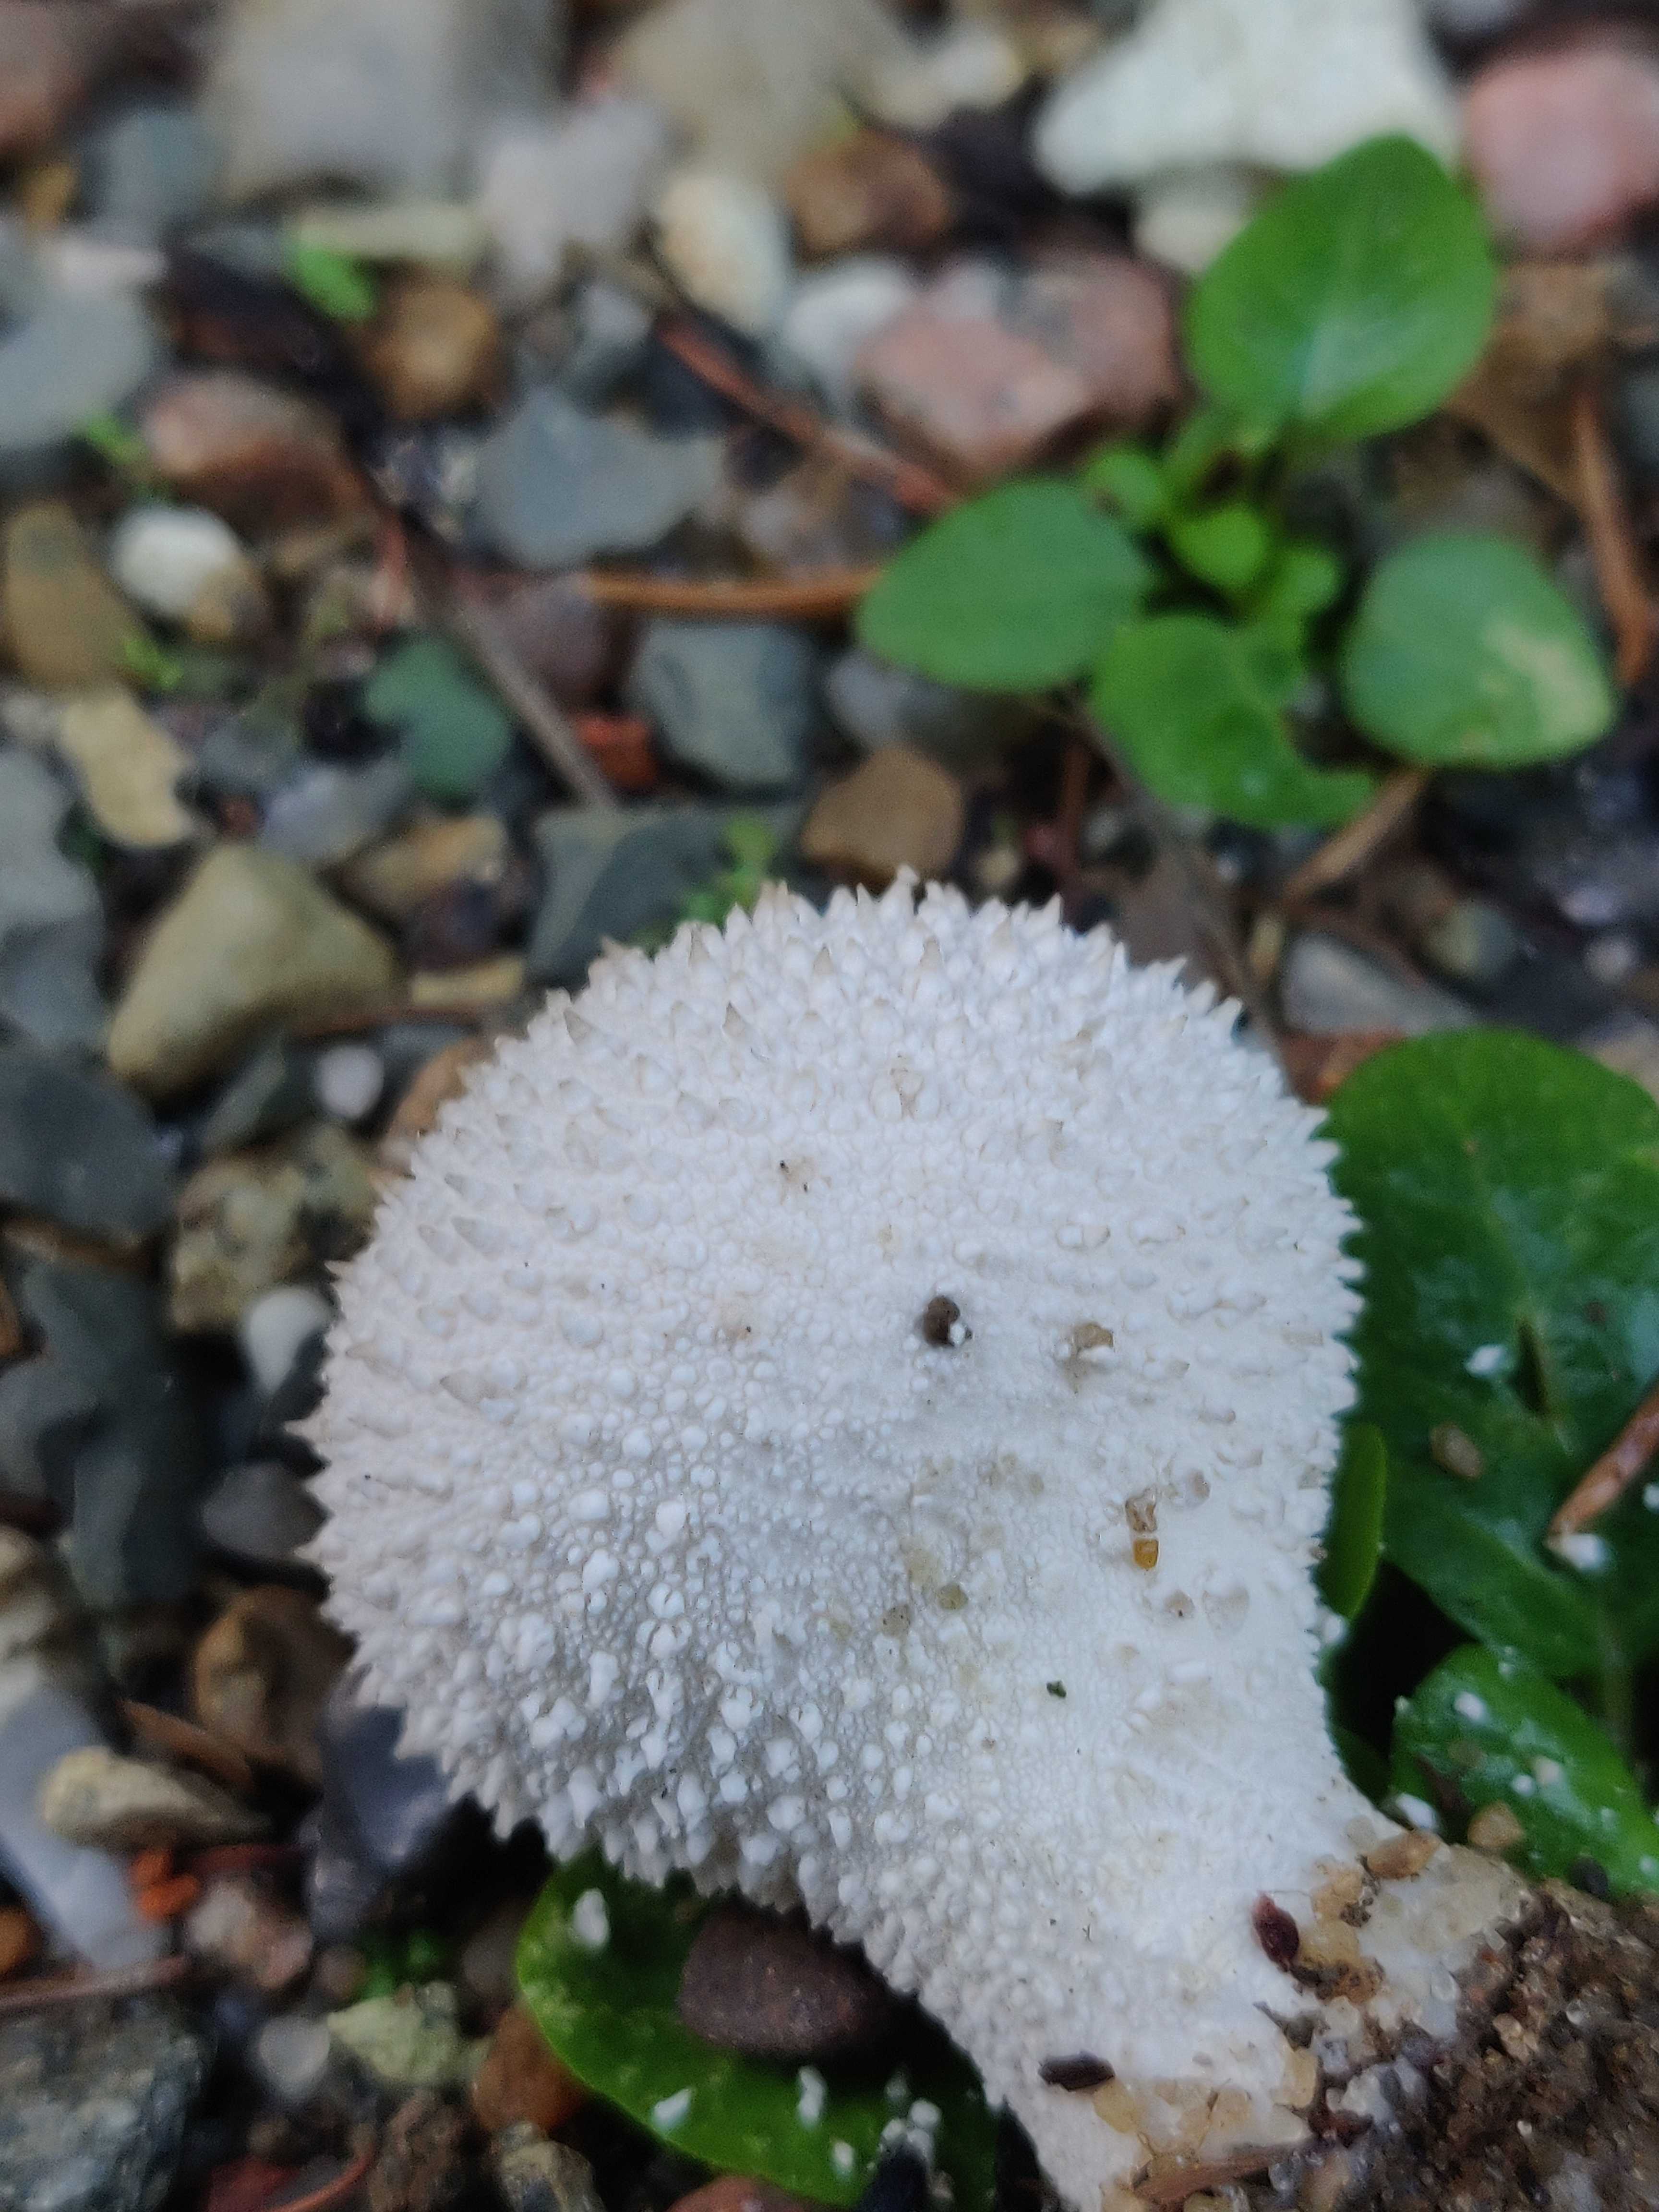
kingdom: Fungi
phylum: Basidiomycota
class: Agaricomycetes
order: Agaricales
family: Lycoperdaceae
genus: Lycoperdon
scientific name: Lycoperdon perlatum
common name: krystal-støvbold
